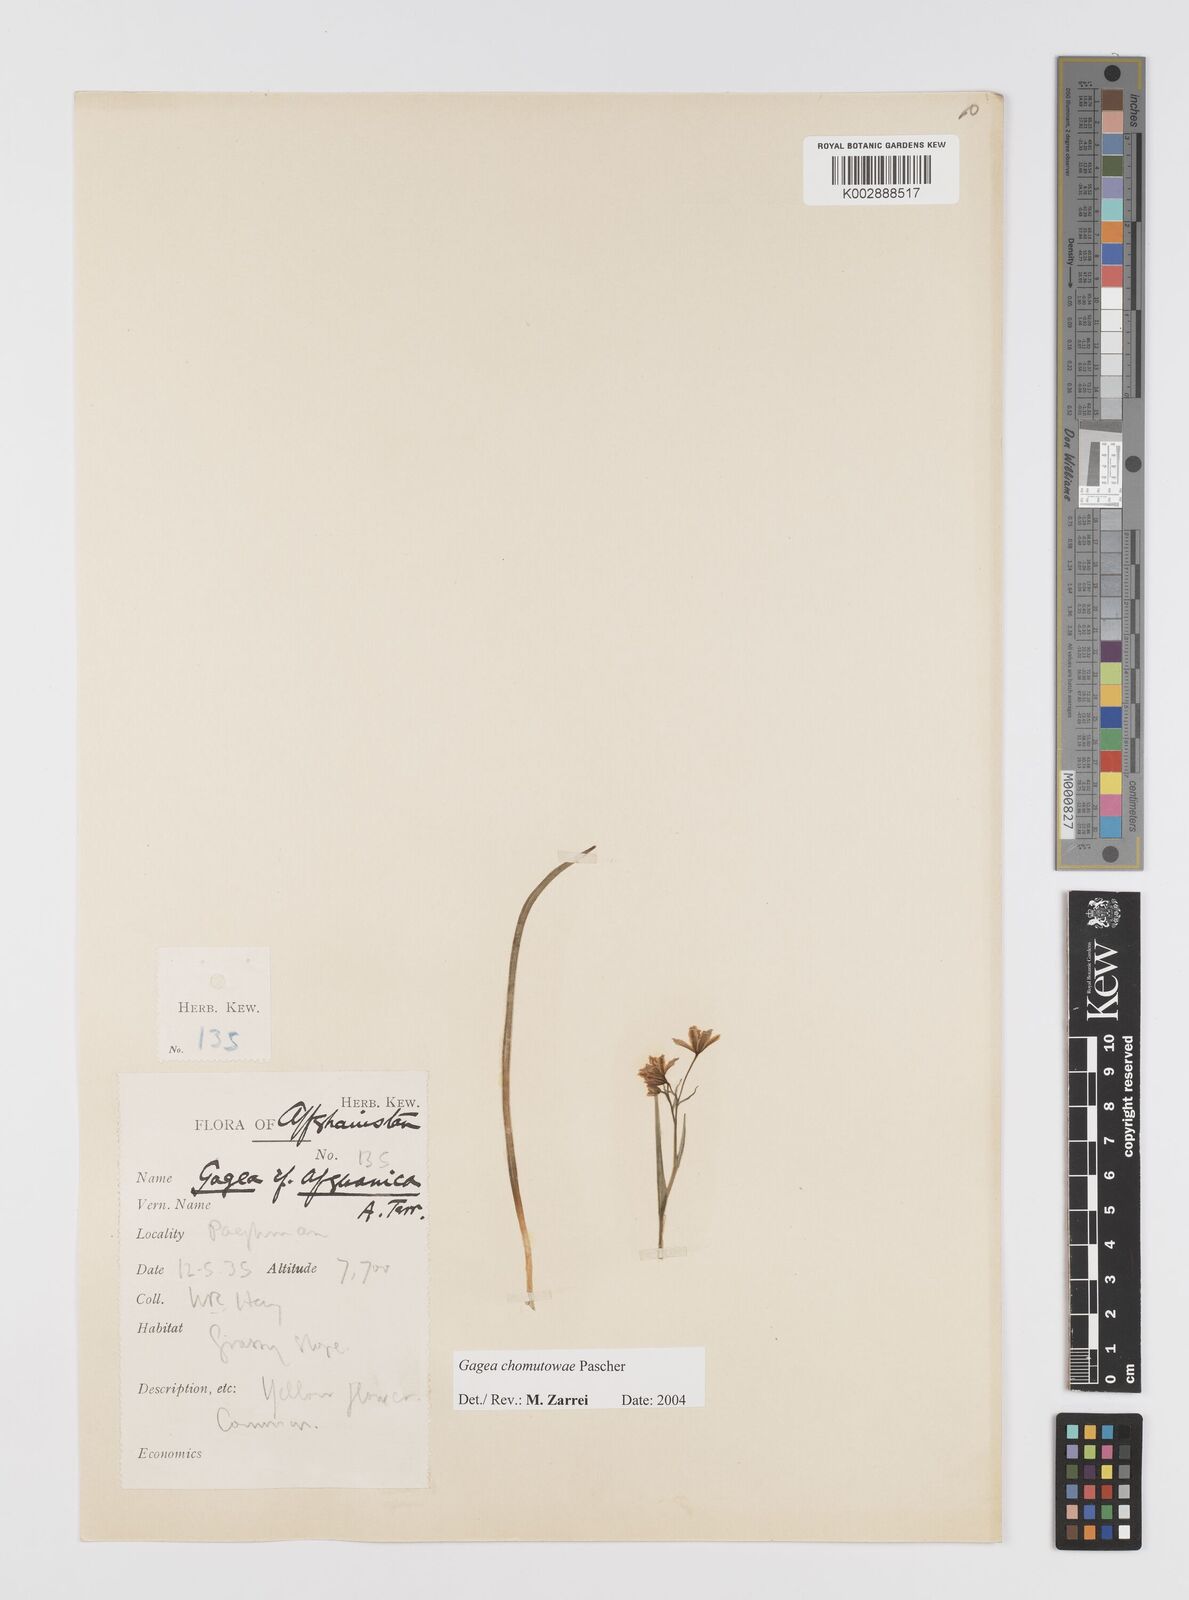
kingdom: Plantae
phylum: Tracheophyta
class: Liliopsida
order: Liliales
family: Liliaceae
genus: Gagea
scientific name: Gagea chomutovae
